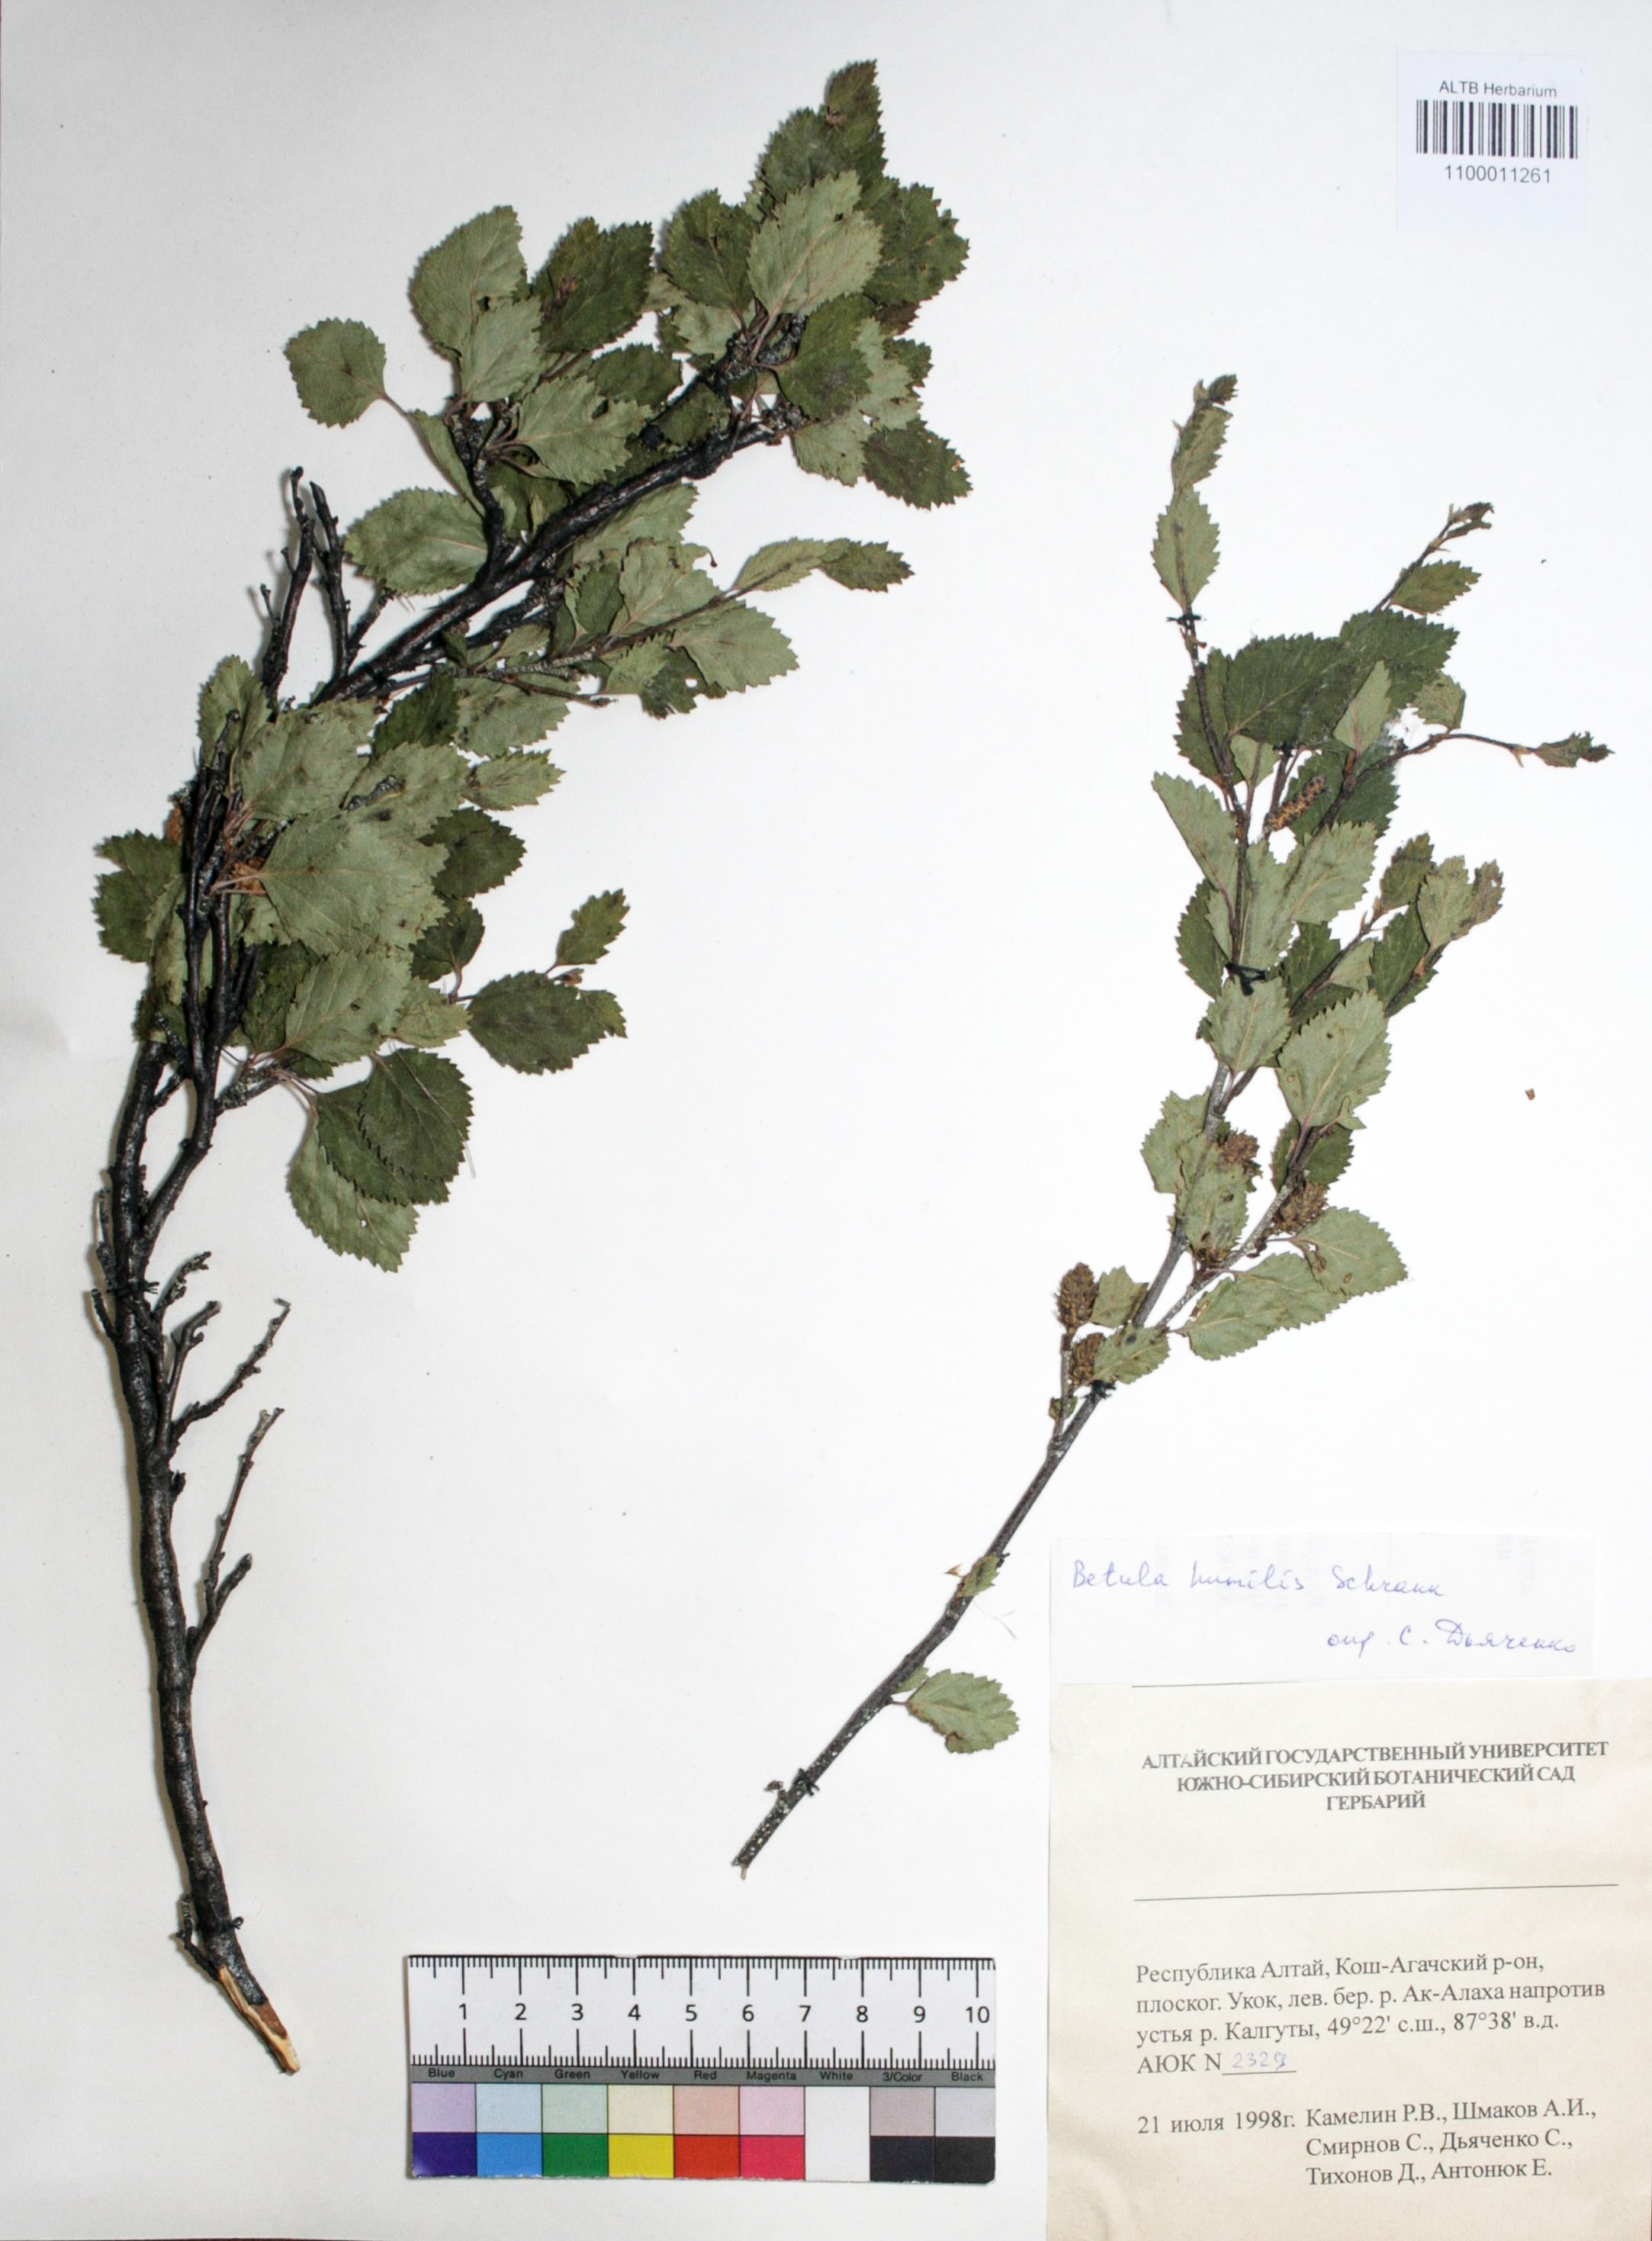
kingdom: Plantae
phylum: Tracheophyta
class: Magnoliopsida
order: Fagales
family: Betulaceae
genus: Betula
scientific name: Betula humilis
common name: Shrubby birch
